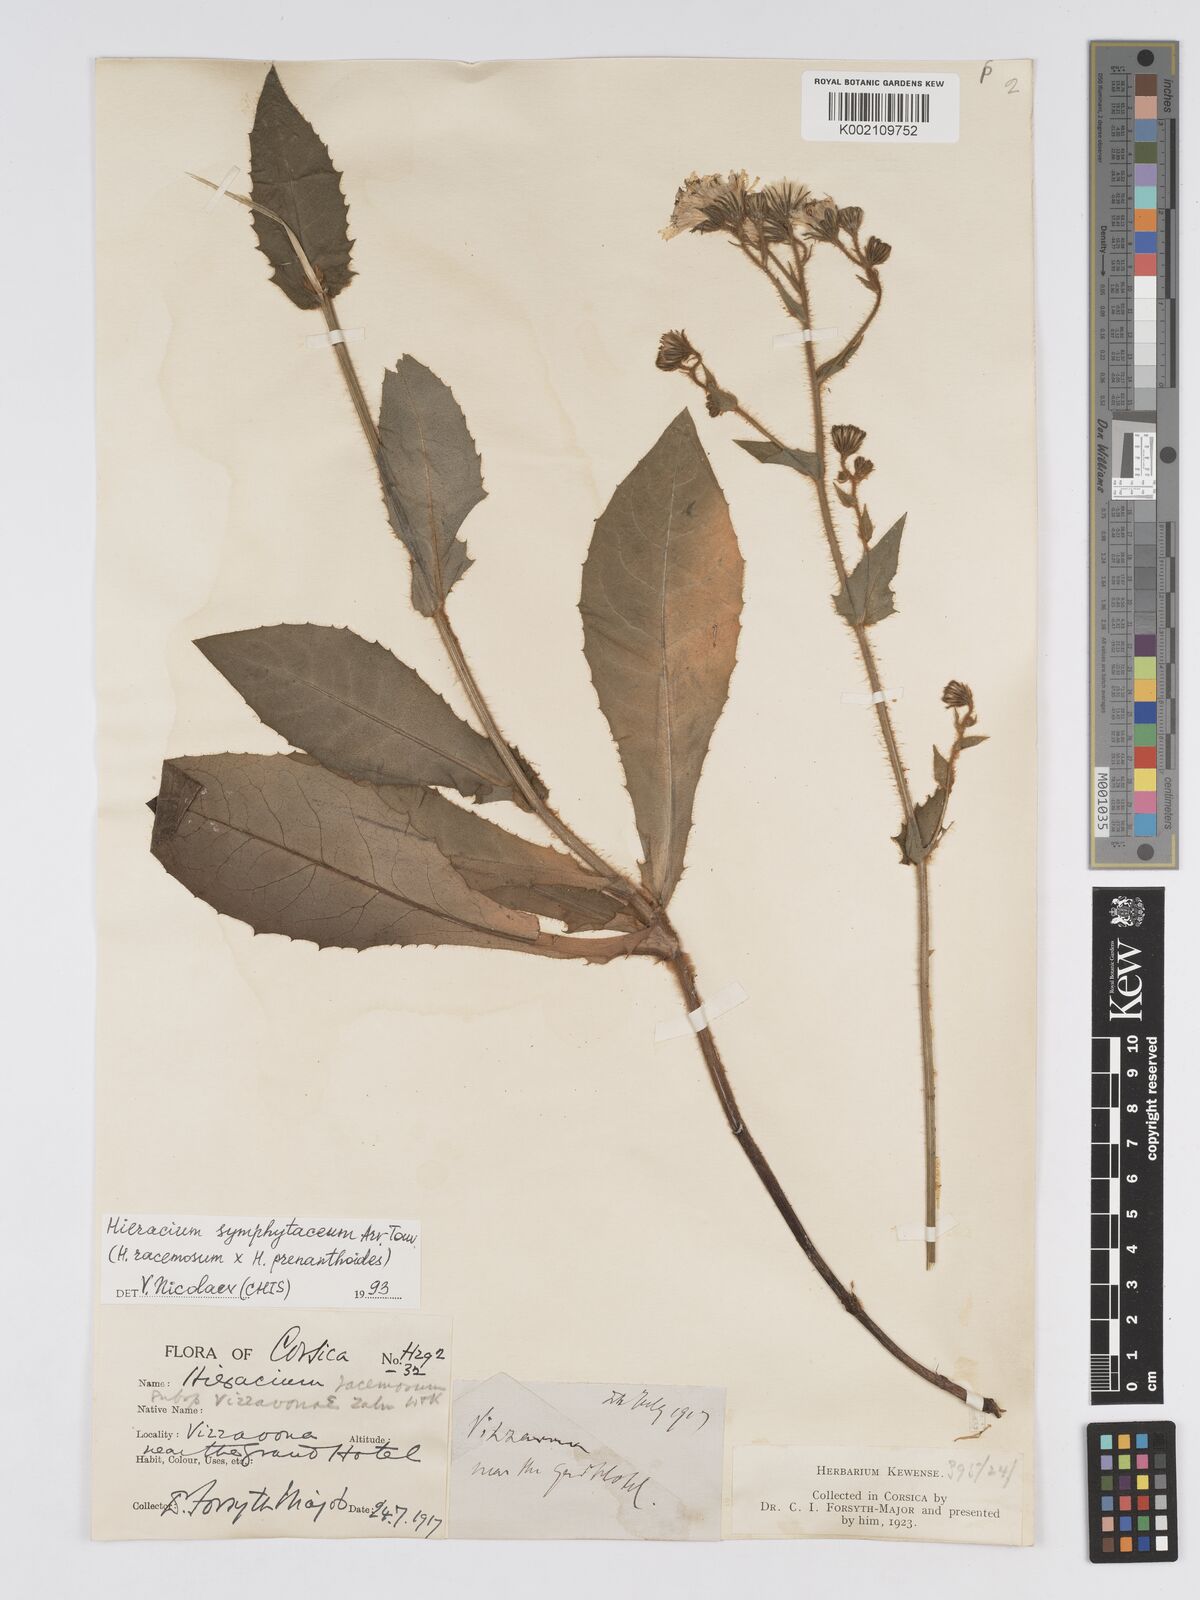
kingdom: Plantae
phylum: Tracheophyta
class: Magnoliopsida
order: Asterales
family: Asteraceae
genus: Hieracium
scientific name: Hieracium
